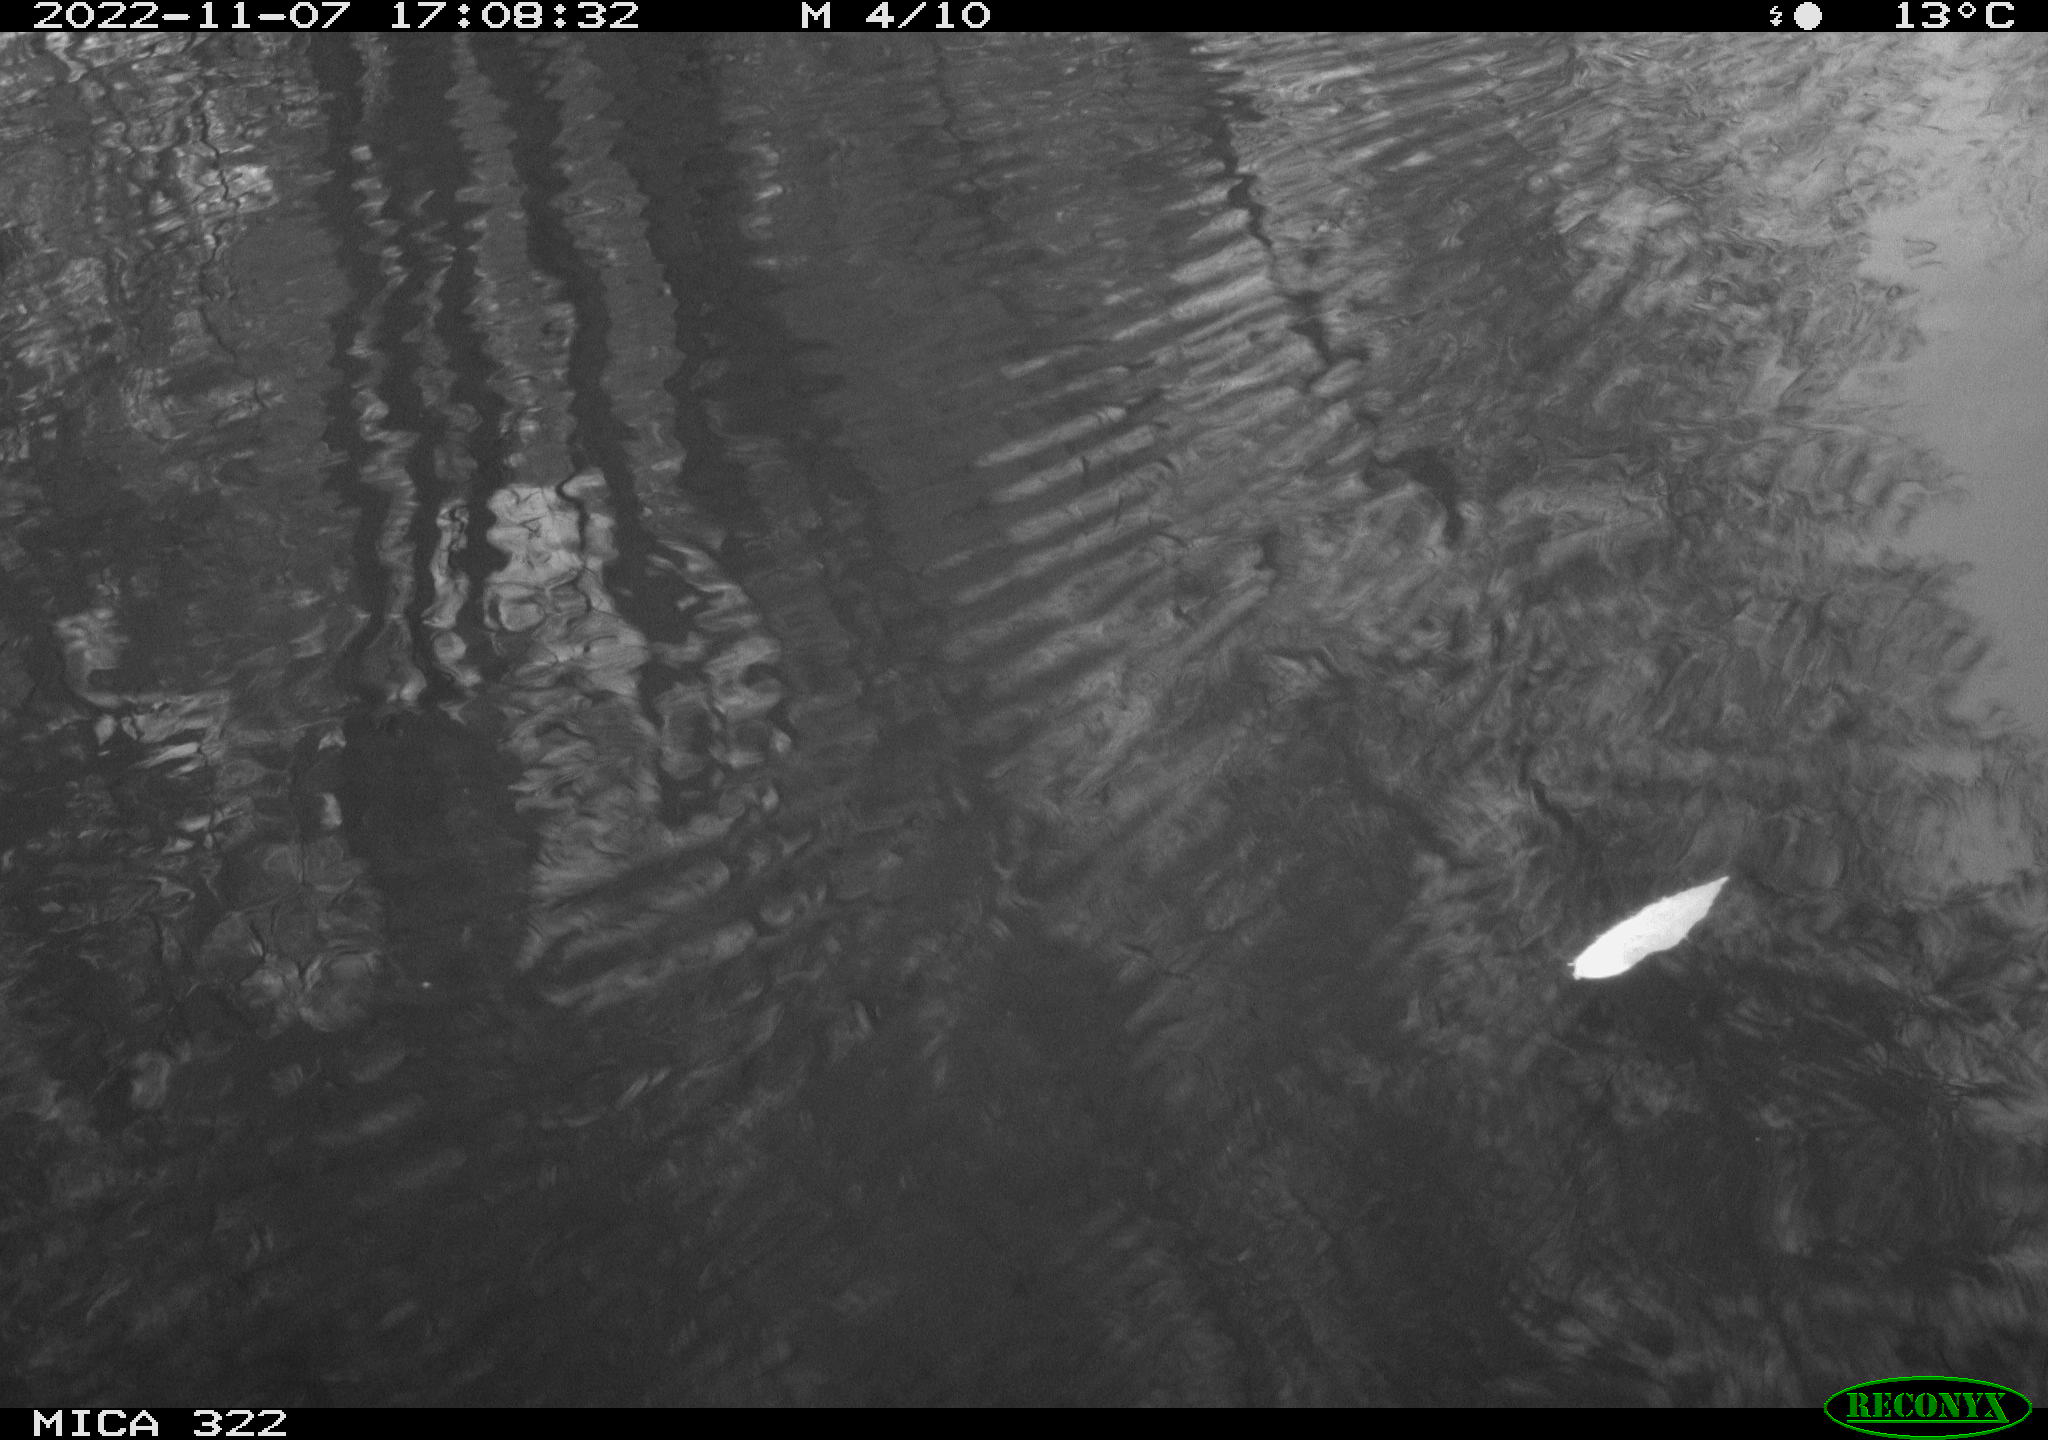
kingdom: Animalia
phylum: Chordata
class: Aves
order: Gruiformes
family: Rallidae
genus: Gallinula
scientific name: Gallinula chloropus
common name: Common moorhen
